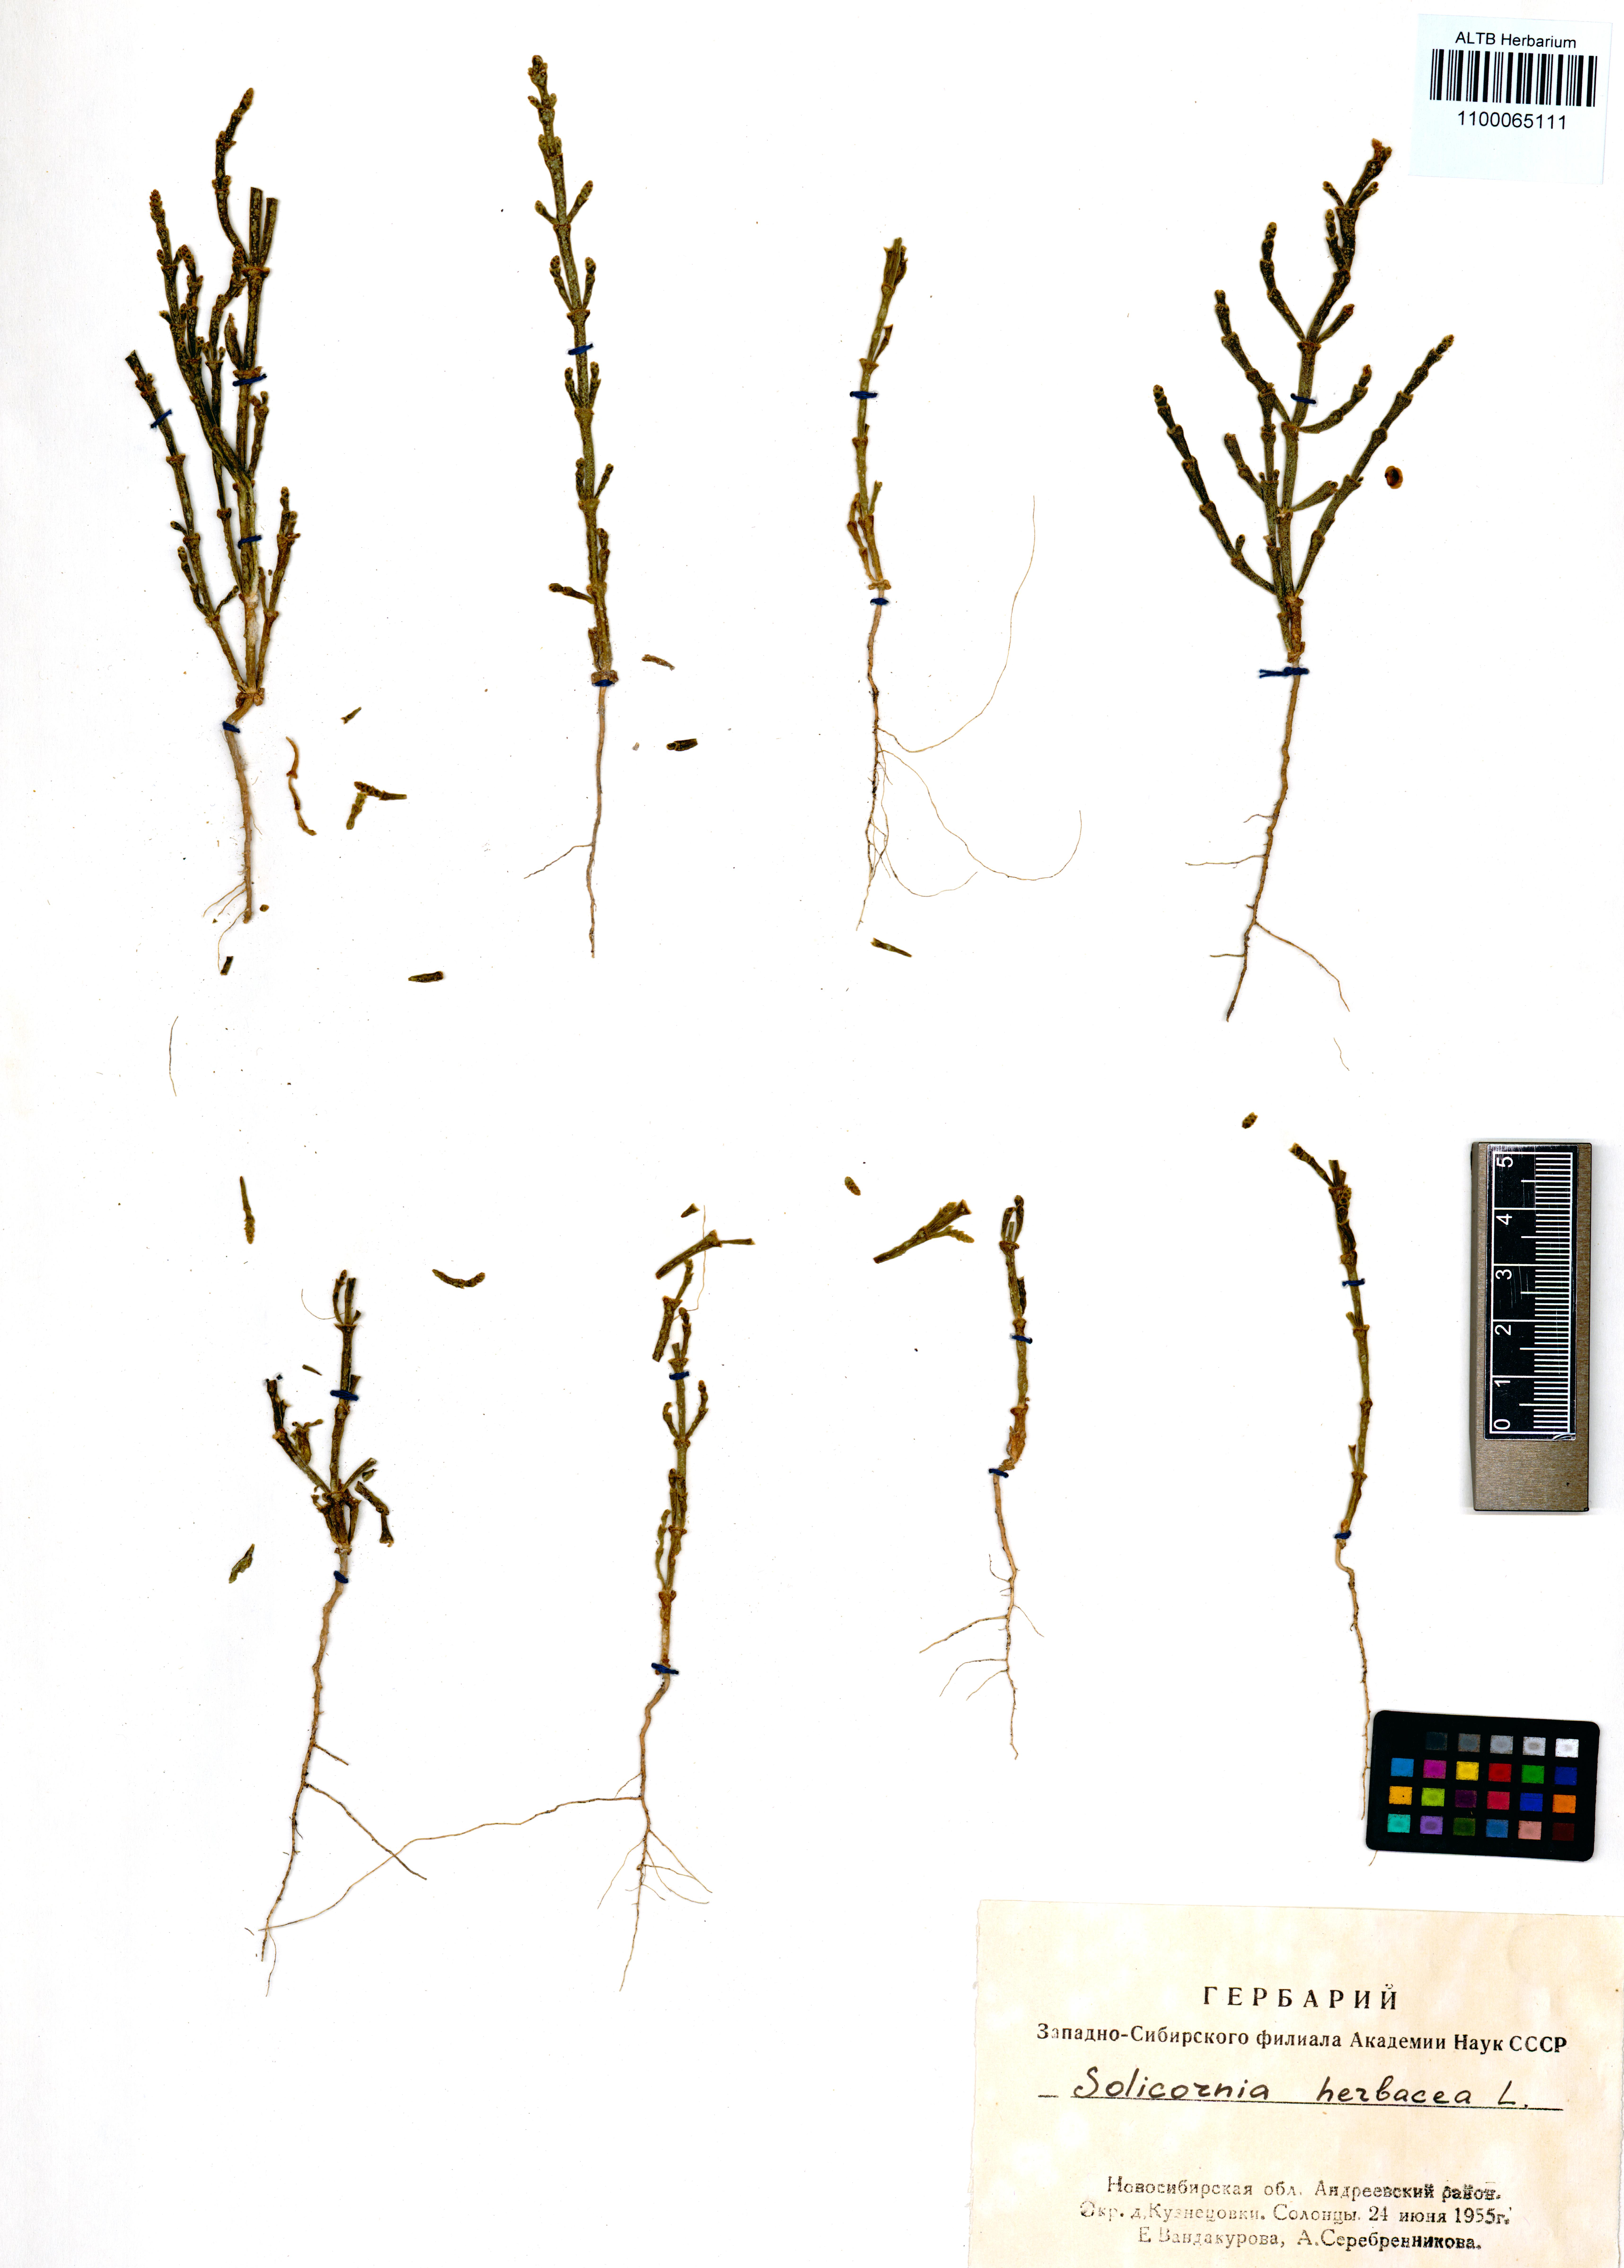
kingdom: Plantae
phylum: Tracheophyta
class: Magnoliopsida
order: Caryophyllales
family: Amaranthaceae
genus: Salicornia
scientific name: Salicornia europaea
